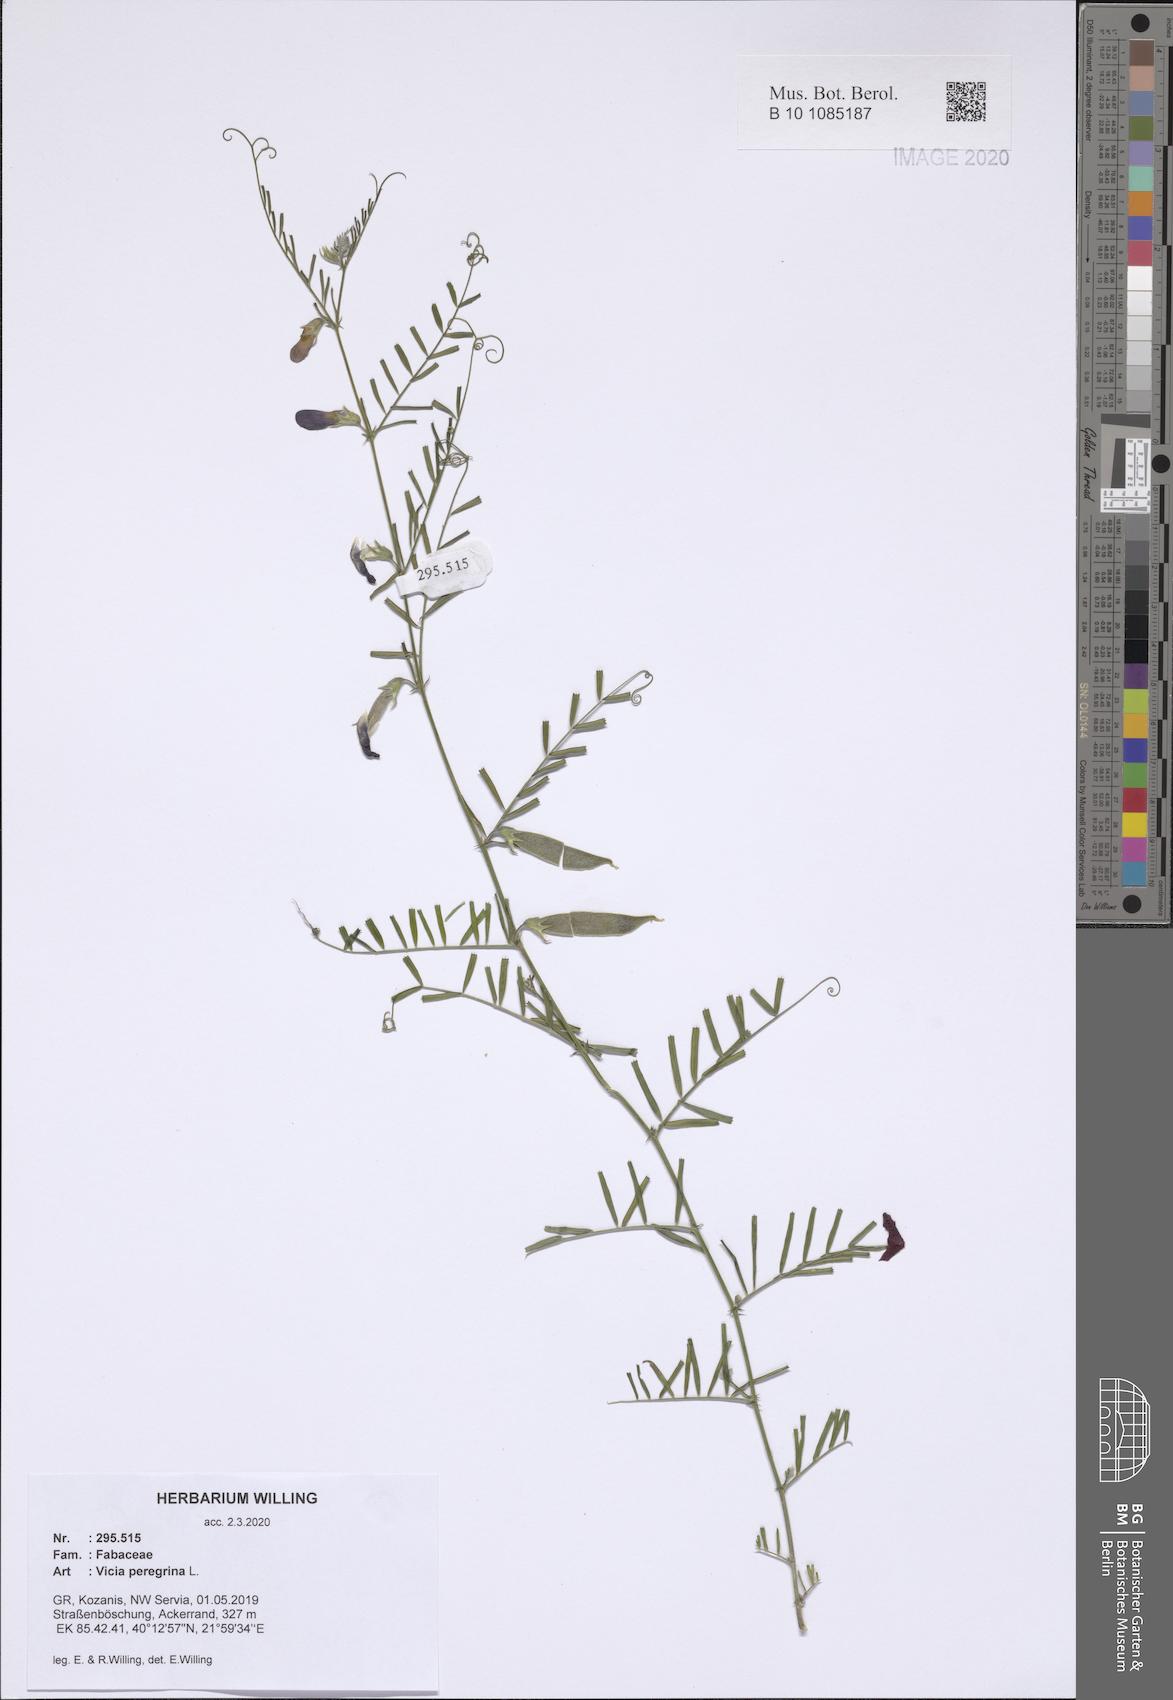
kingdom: Plantae
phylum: Tracheophyta
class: Magnoliopsida
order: Fabales
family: Fabaceae
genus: Vicia
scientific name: Vicia peregrina
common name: Broad-pod vetch
